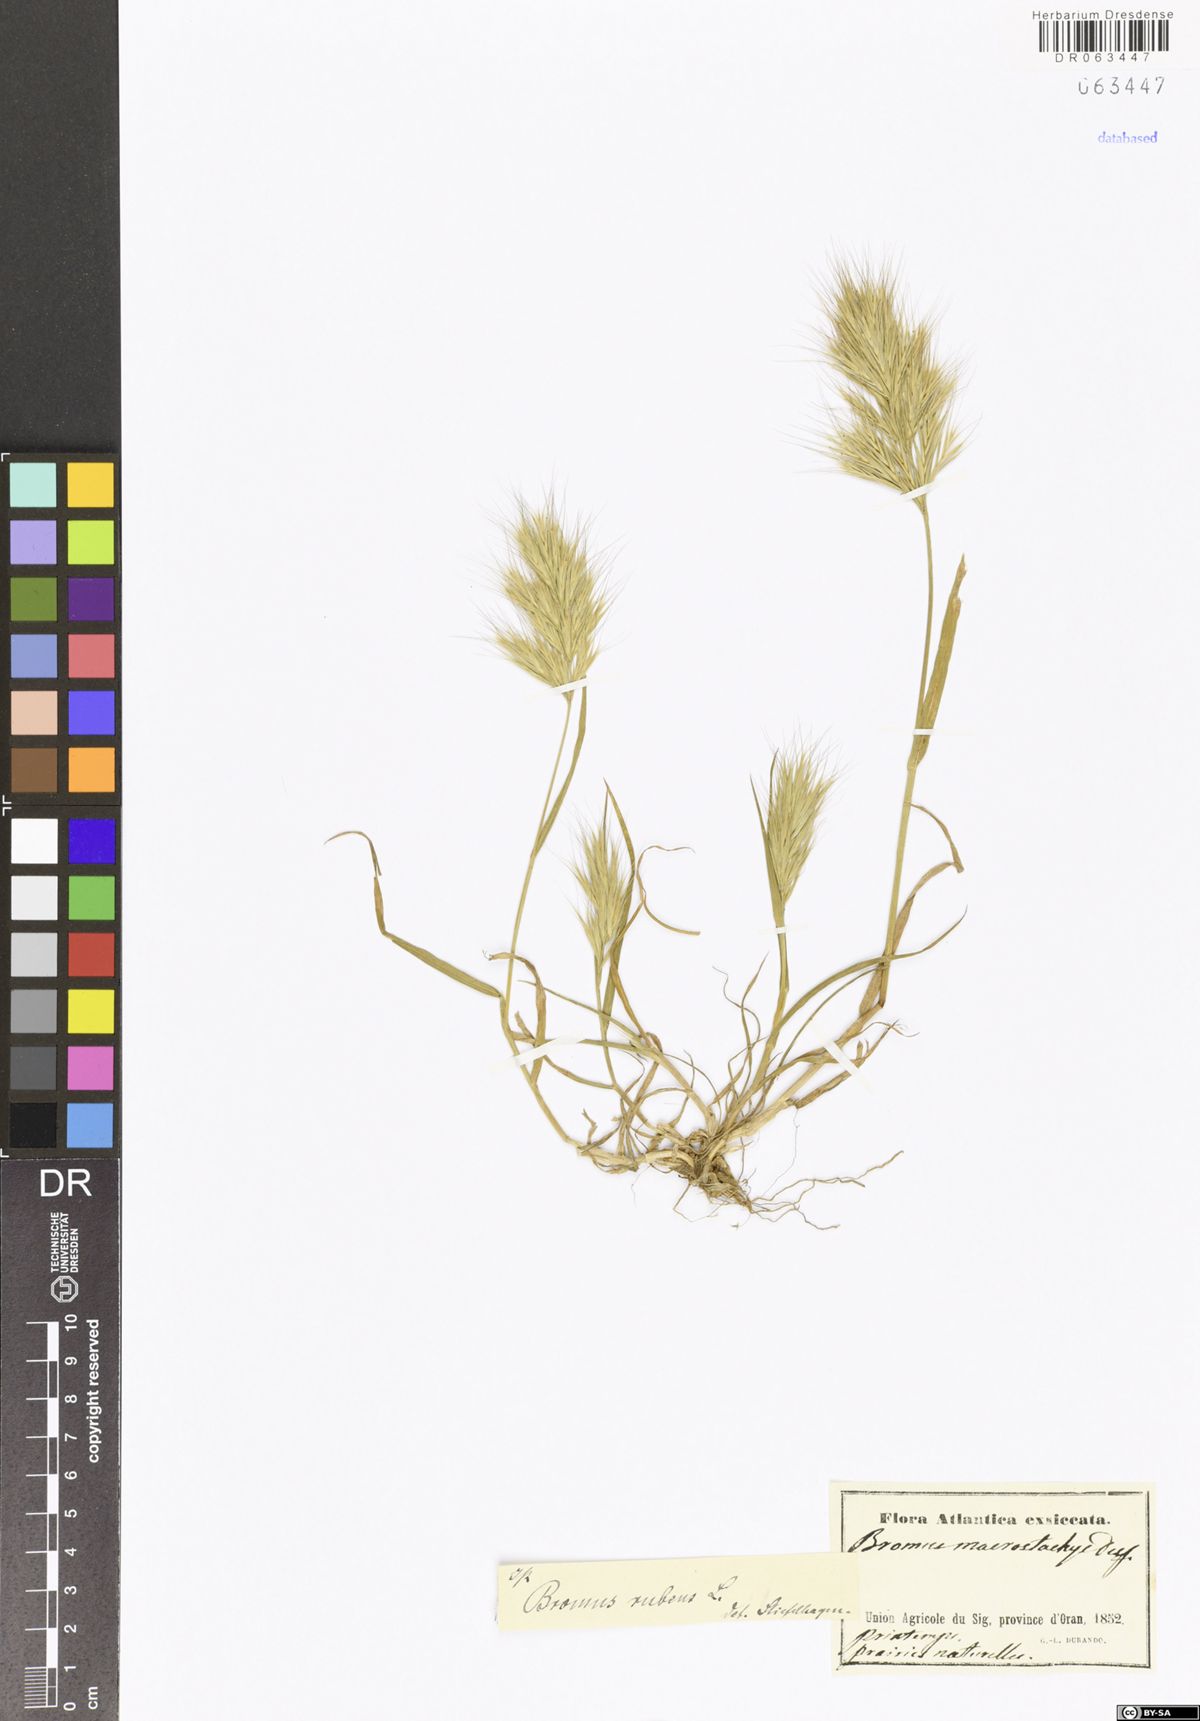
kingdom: Plantae
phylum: Tracheophyta
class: Liliopsida
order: Poales
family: Poaceae
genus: Bromus
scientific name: Bromus rubens
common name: Red brome
